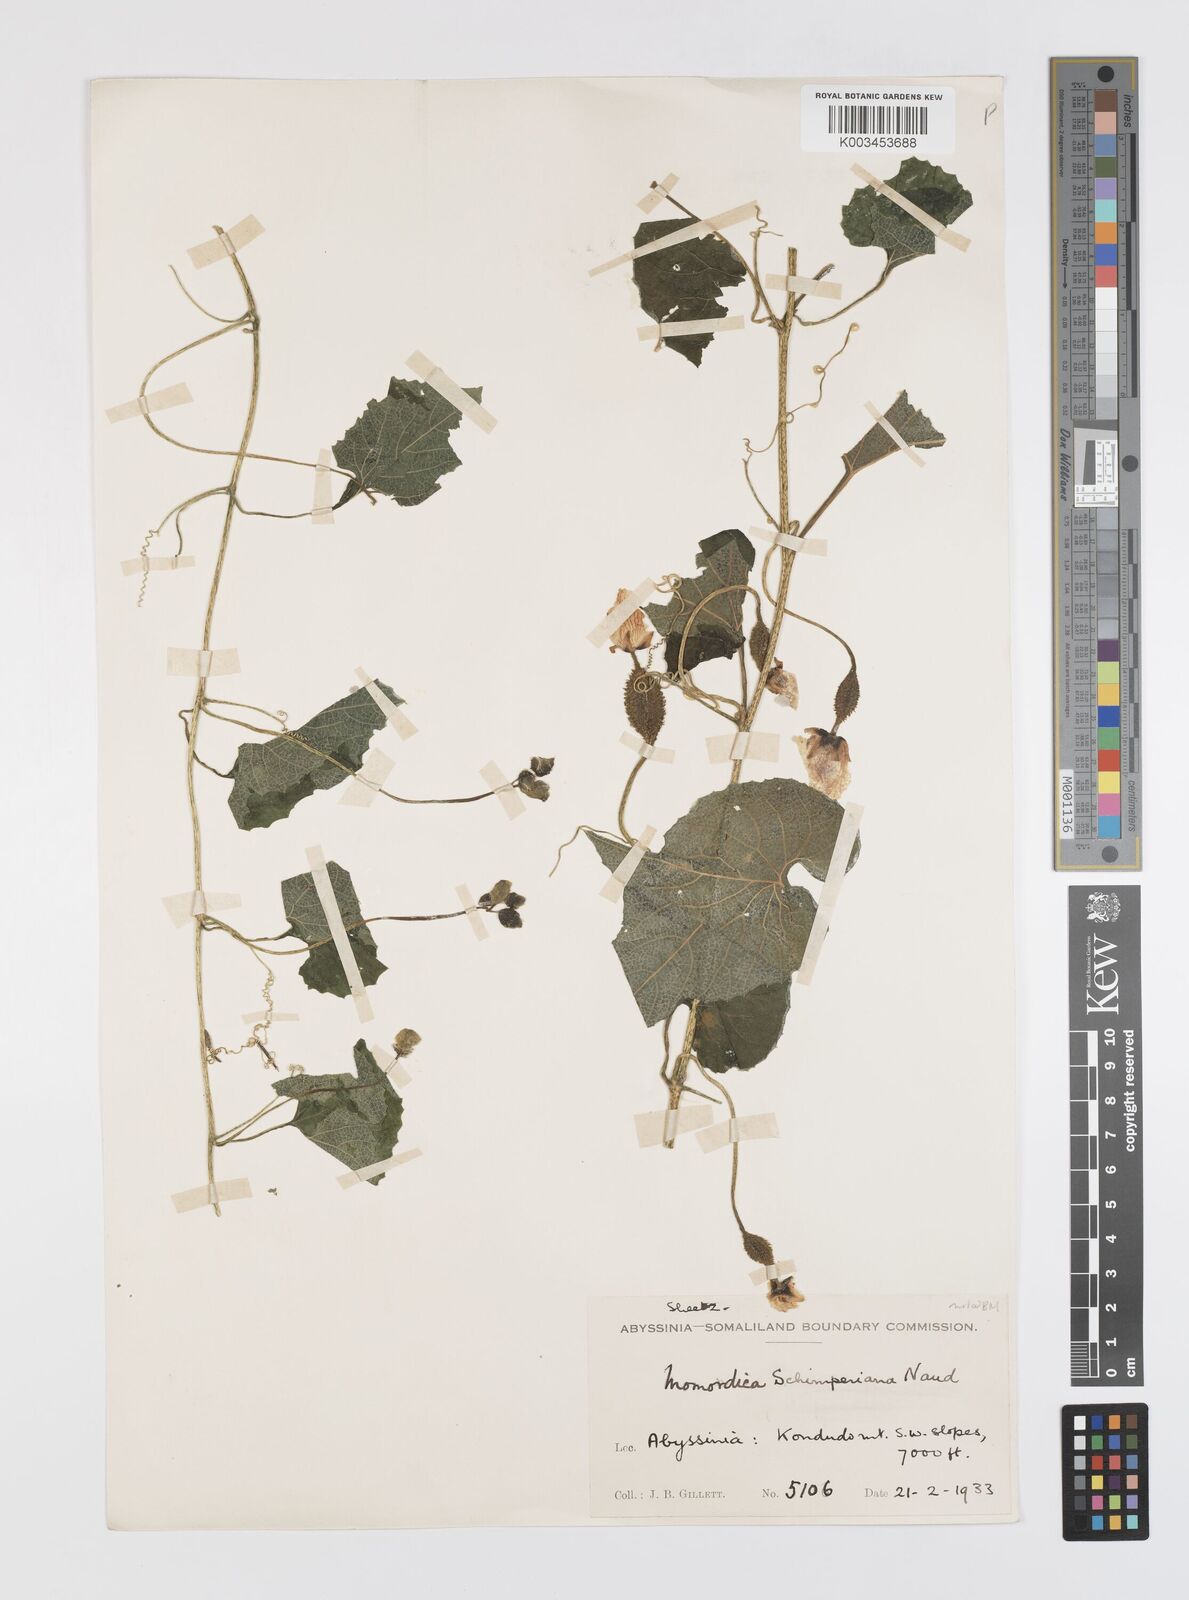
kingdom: Plantae
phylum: Tracheophyta
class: Magnoliopsida
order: Cucurbitales
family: Cucurbitaceae
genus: Momordica
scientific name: Momordica foetida
